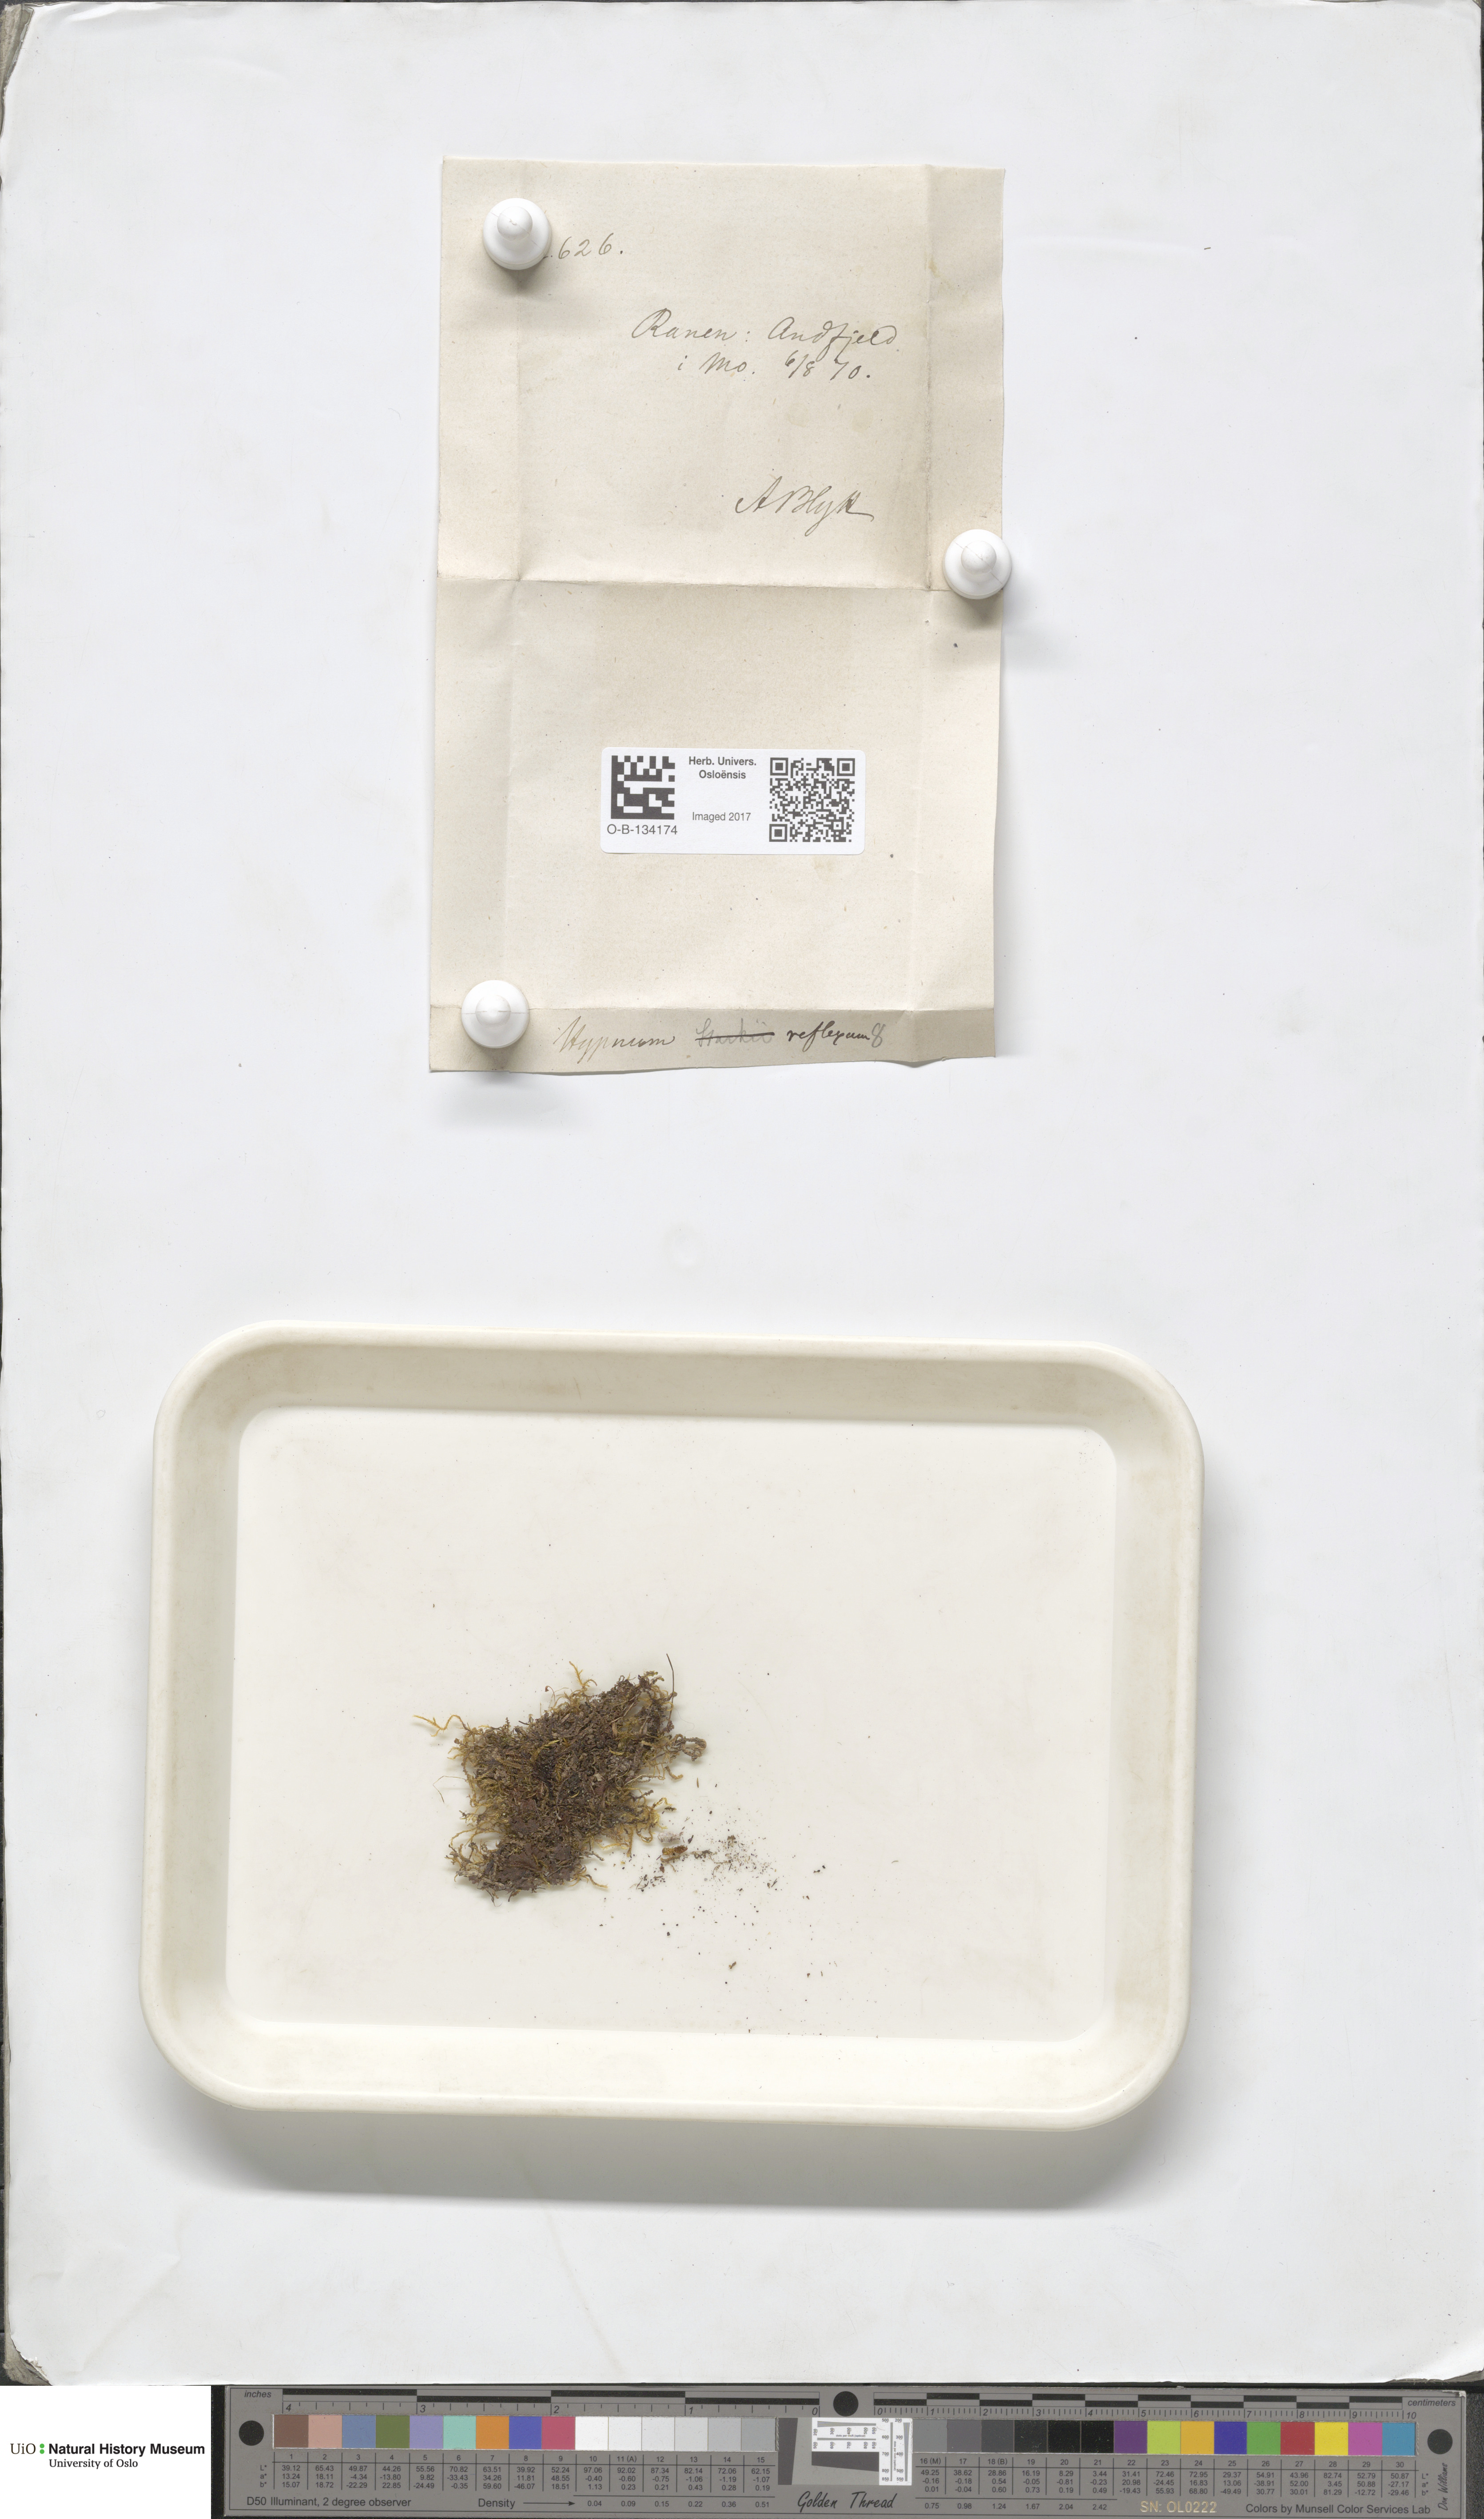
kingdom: Plantae
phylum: Bryophyta
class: Bryopsida
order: Hypnales
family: Brachytheciaceae
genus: Sciuro-hypnum
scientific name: Sciuro-hypnum reflexum
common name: Reflexed feather-moss
